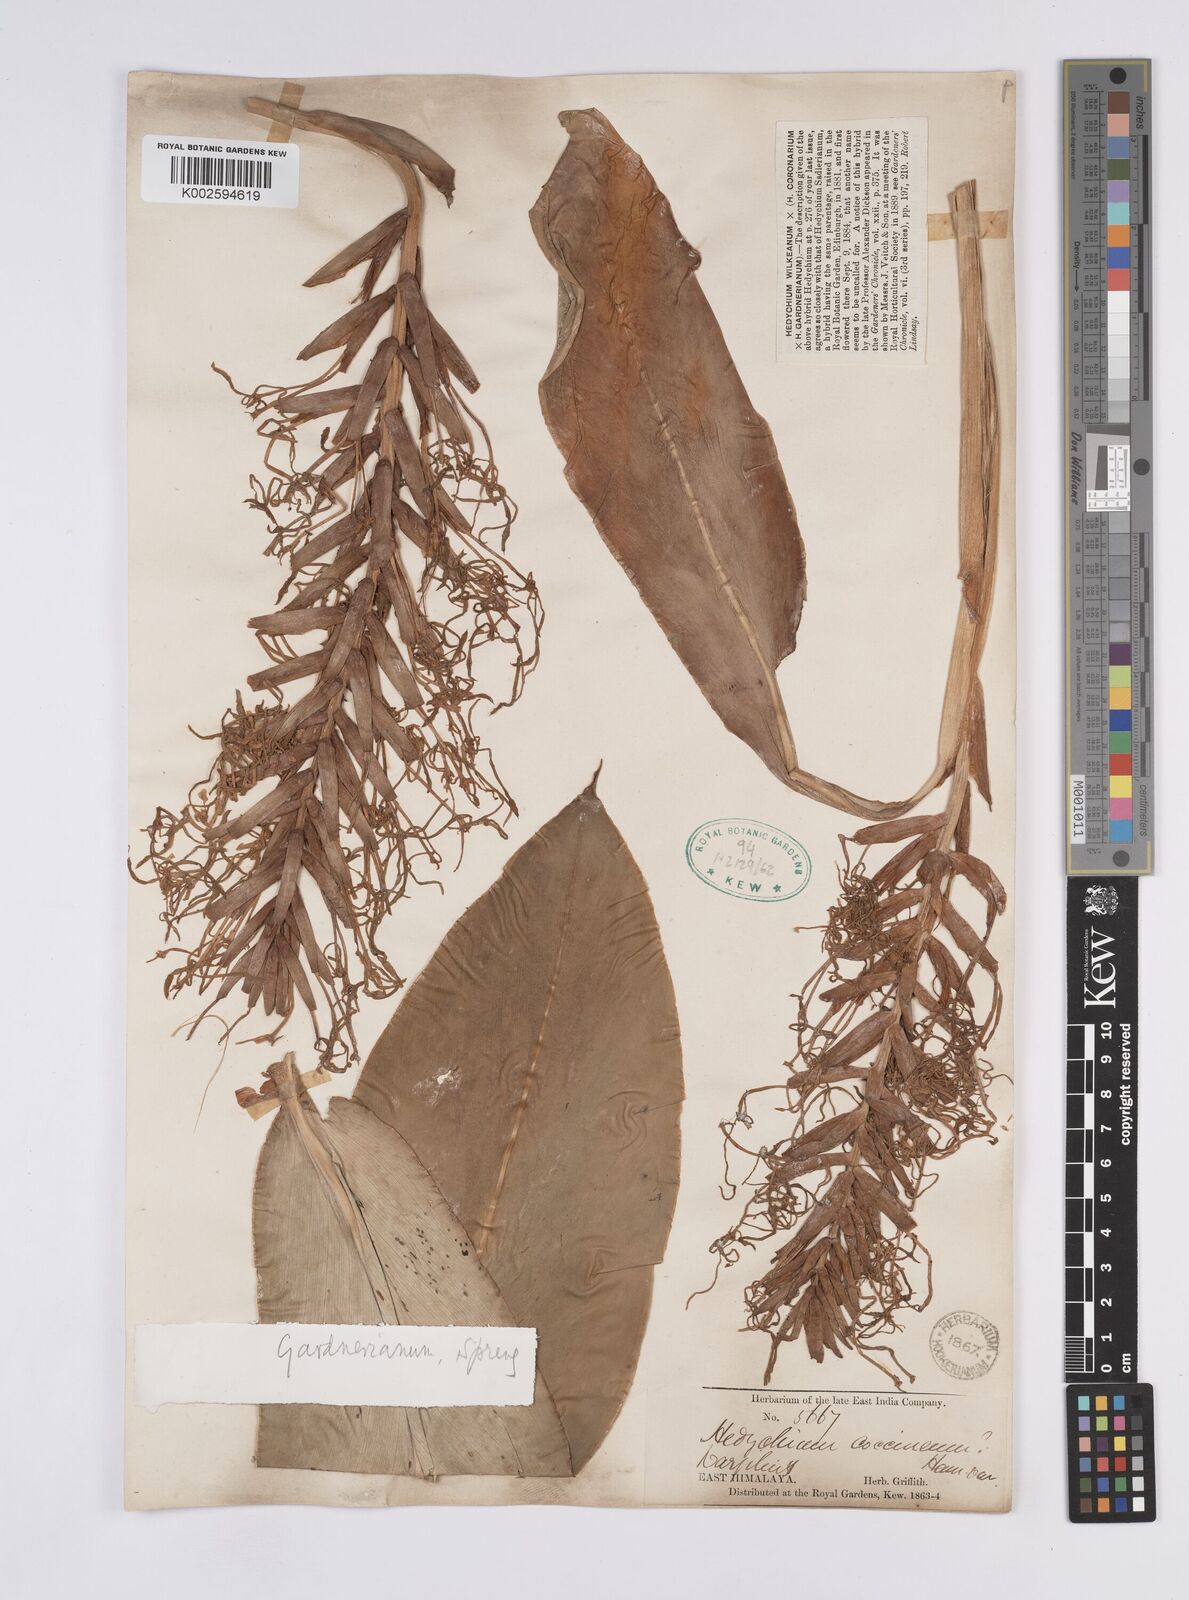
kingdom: Plantae
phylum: Tracheophyta
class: Liliopsida
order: Zingiberales
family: Zingiberaceae
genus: Hedychium
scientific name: Hedychium gardnerianum
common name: Himalayan ginger
